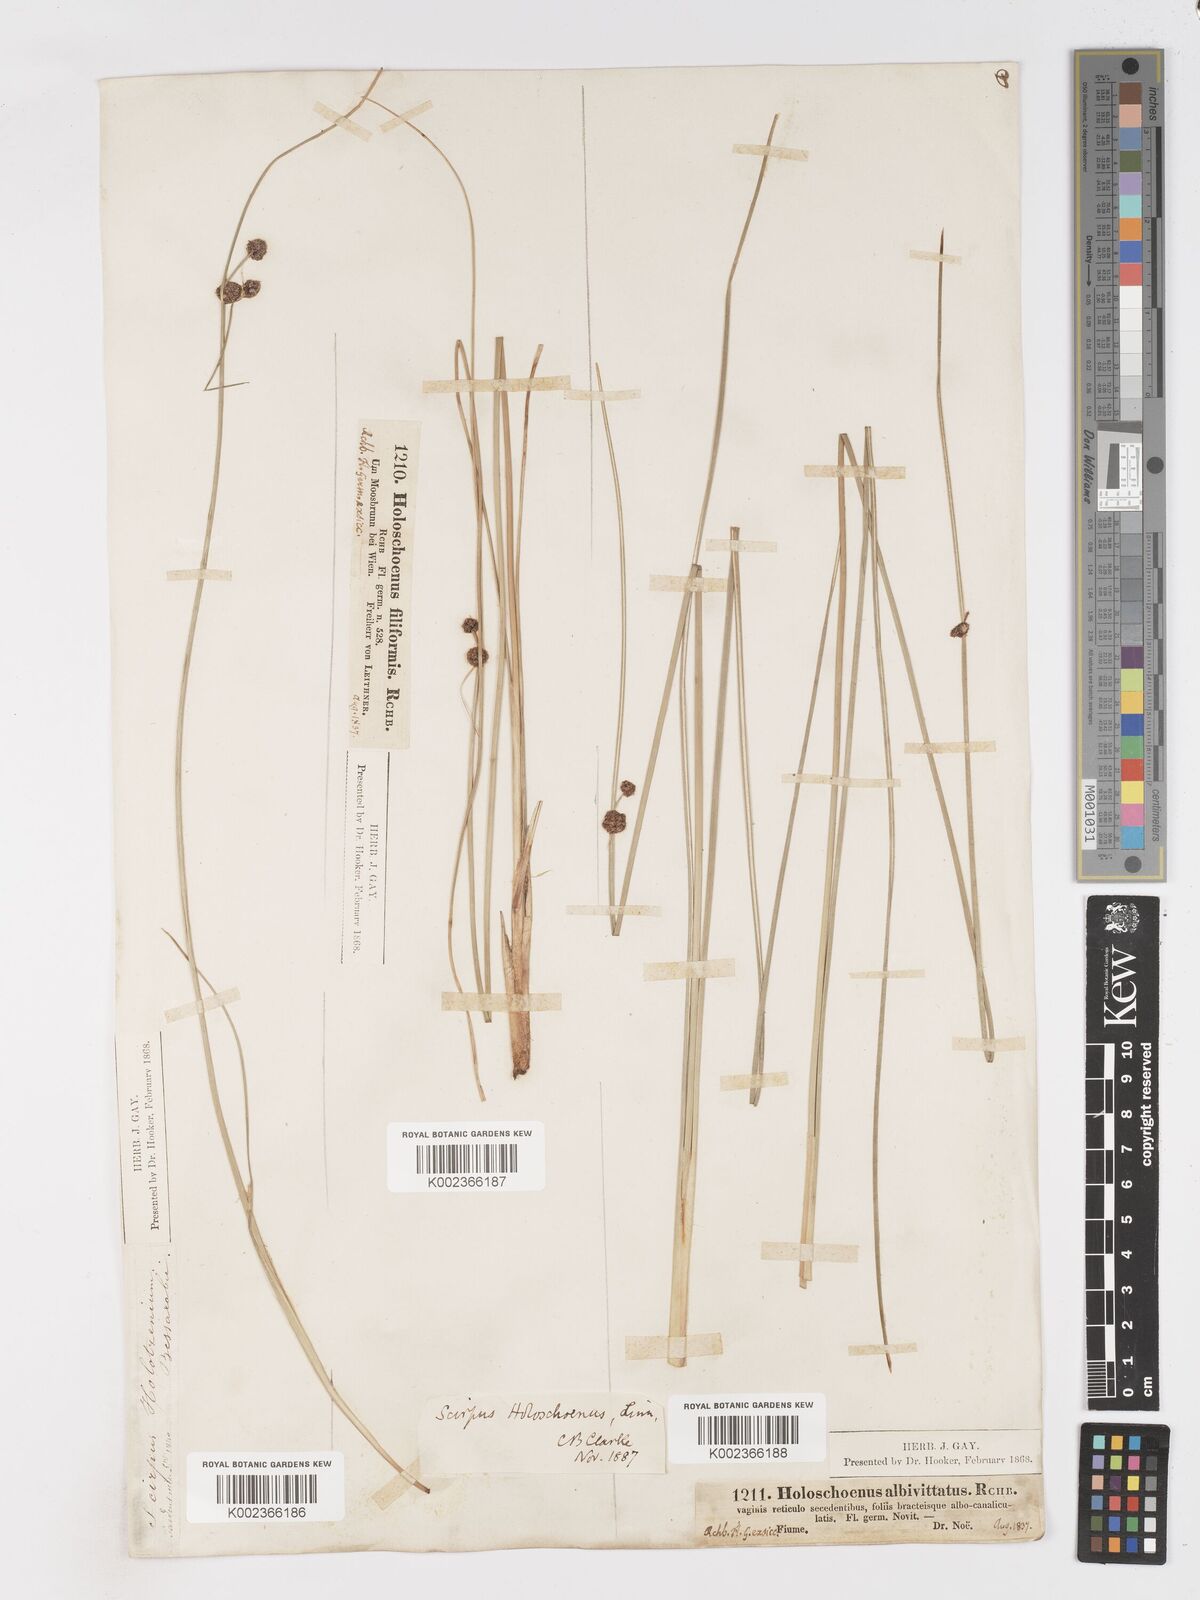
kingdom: Plantae
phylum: Tracheophyta
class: Liliopsida
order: Poales
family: Cyperaceae
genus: Scirpoides
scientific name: Scirpoides holoschoenus
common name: Round-headed club-rush
